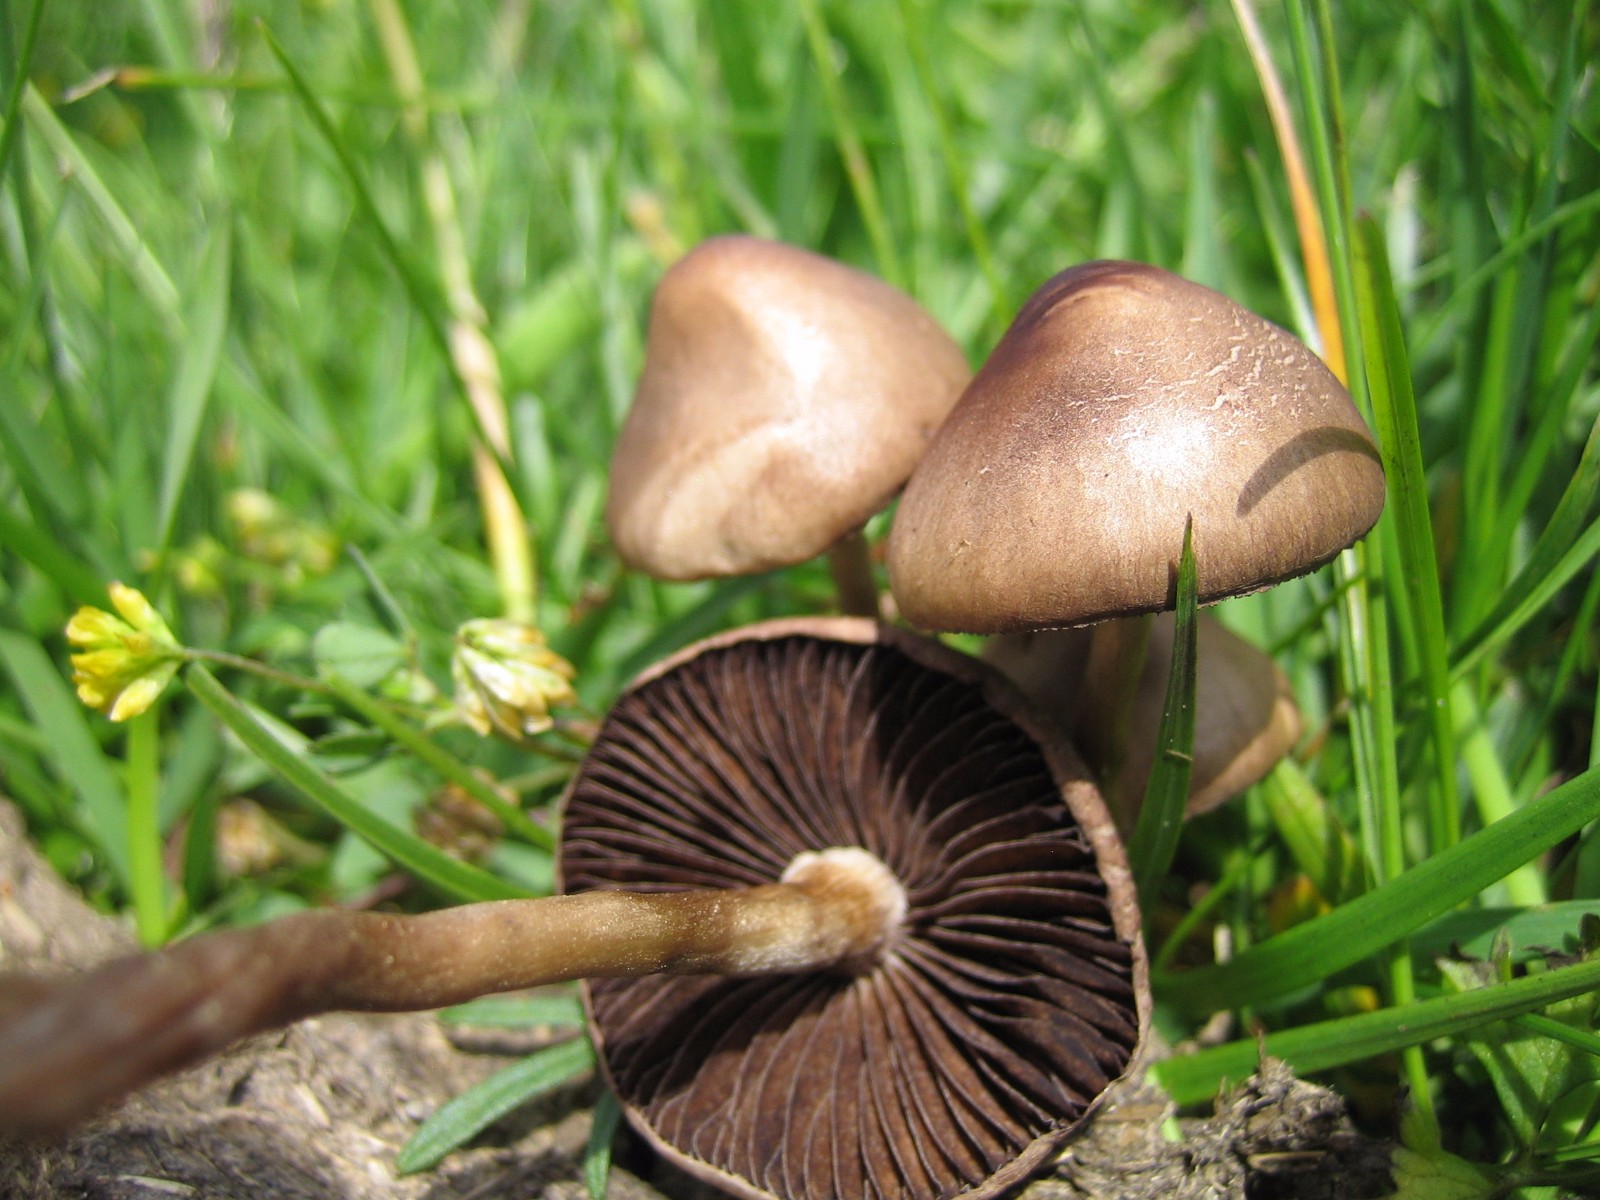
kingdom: Fungi
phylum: Basidiomycota
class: Agaricomycetes
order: Agaricales
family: Bolbitiaceae
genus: Panaeolus
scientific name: Panaeolus
